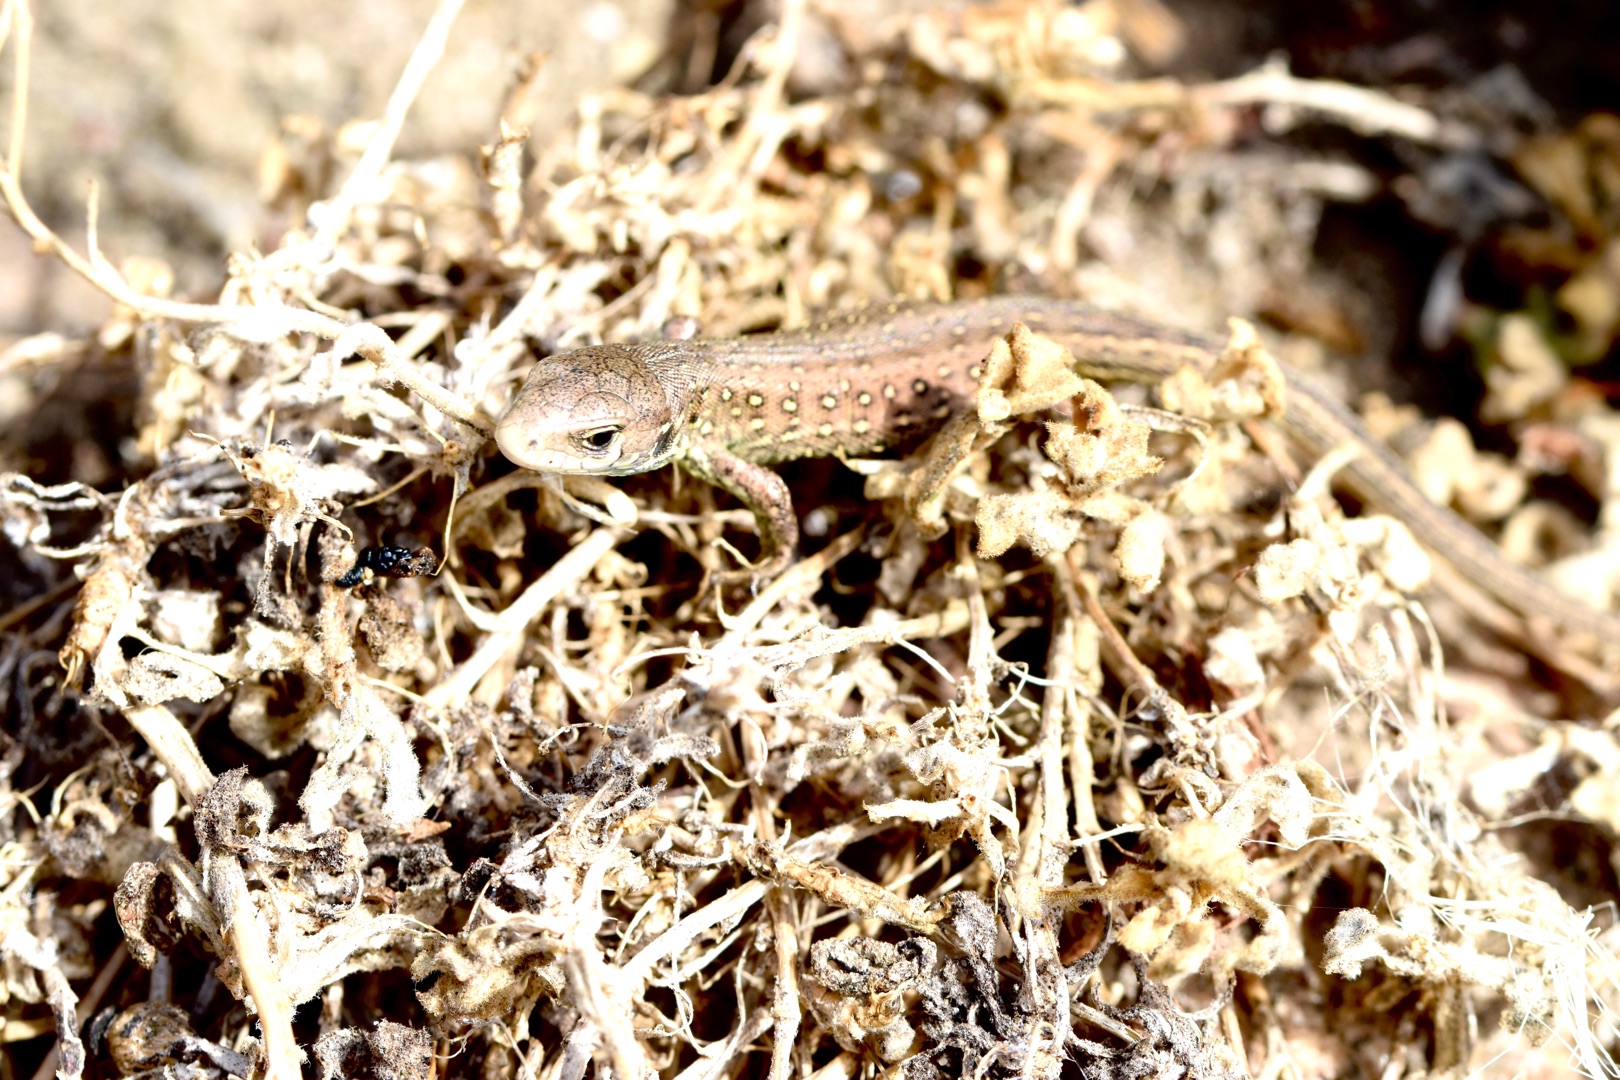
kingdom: Animalia
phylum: Chordata
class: Squamata
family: Lacertidae
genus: Lacerta
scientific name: Lacerta agilis
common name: Markfirben
